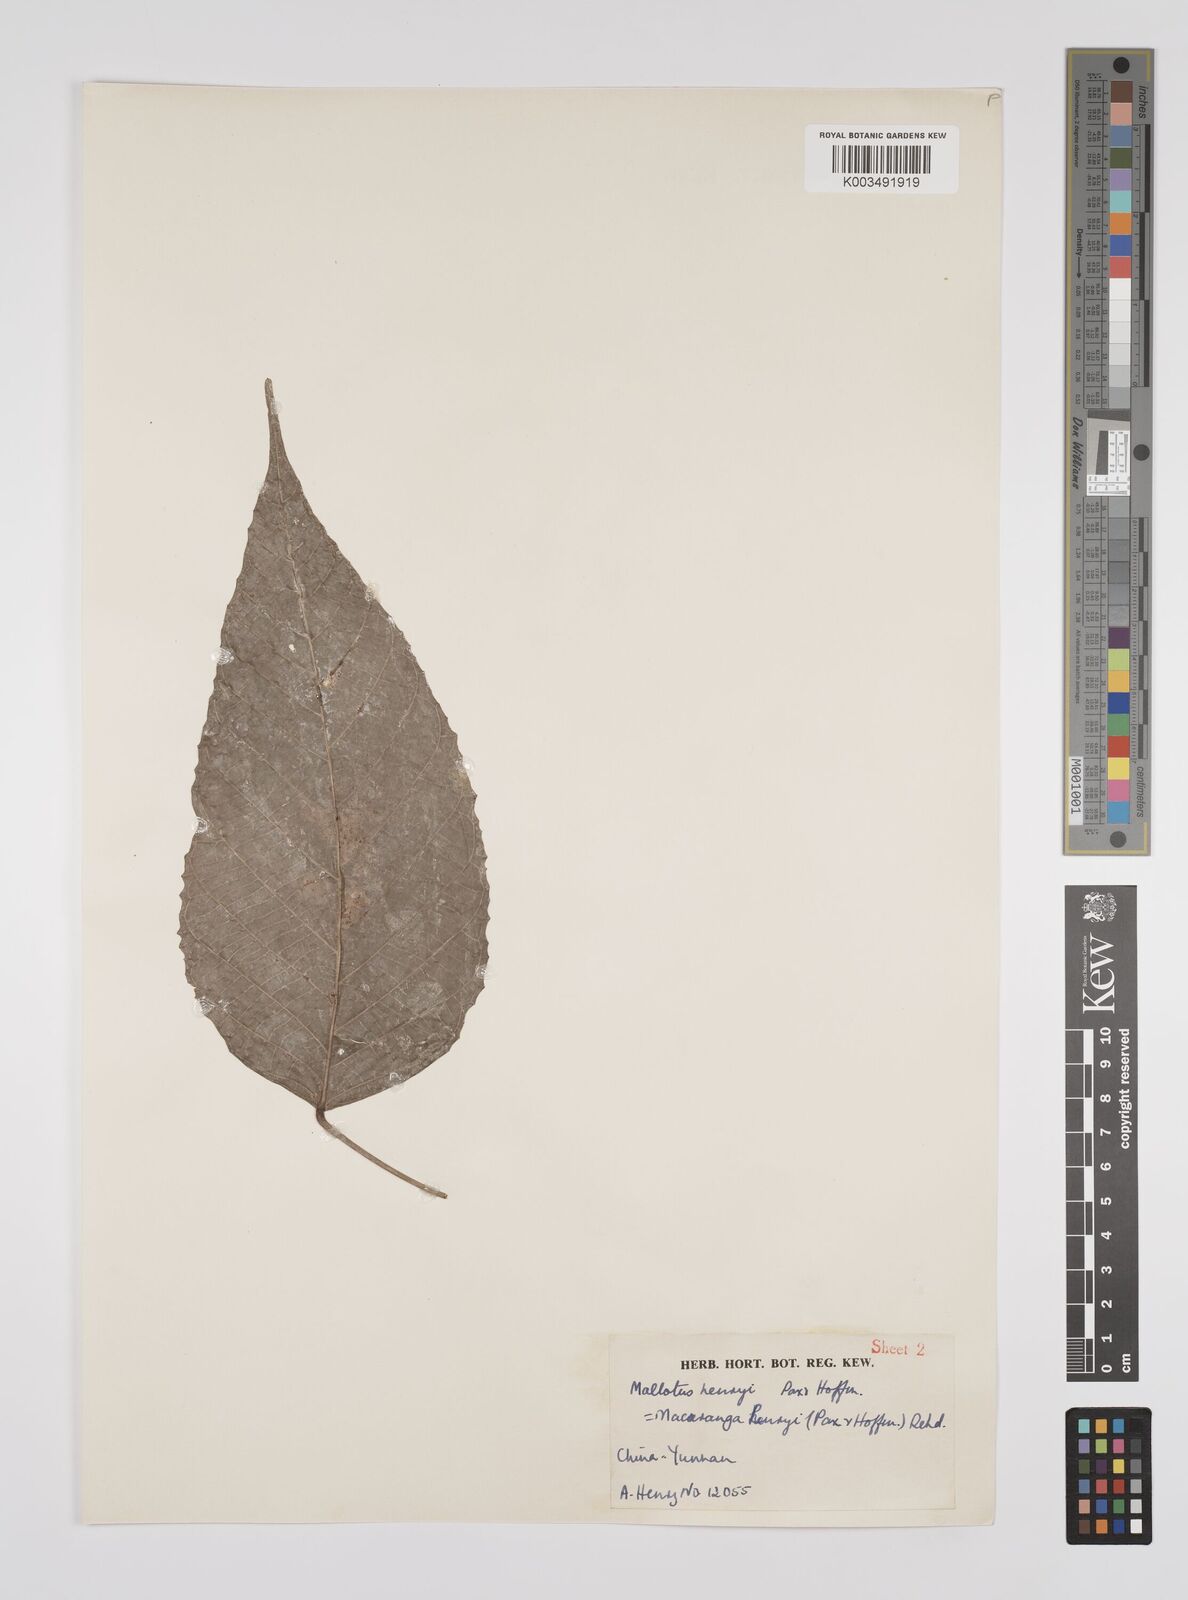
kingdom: Plantae
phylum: Tracheophyta
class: Magnoliopsida
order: Malpighiales
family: Euphorbiaceae
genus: Macaranga
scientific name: Macaranga henryi
